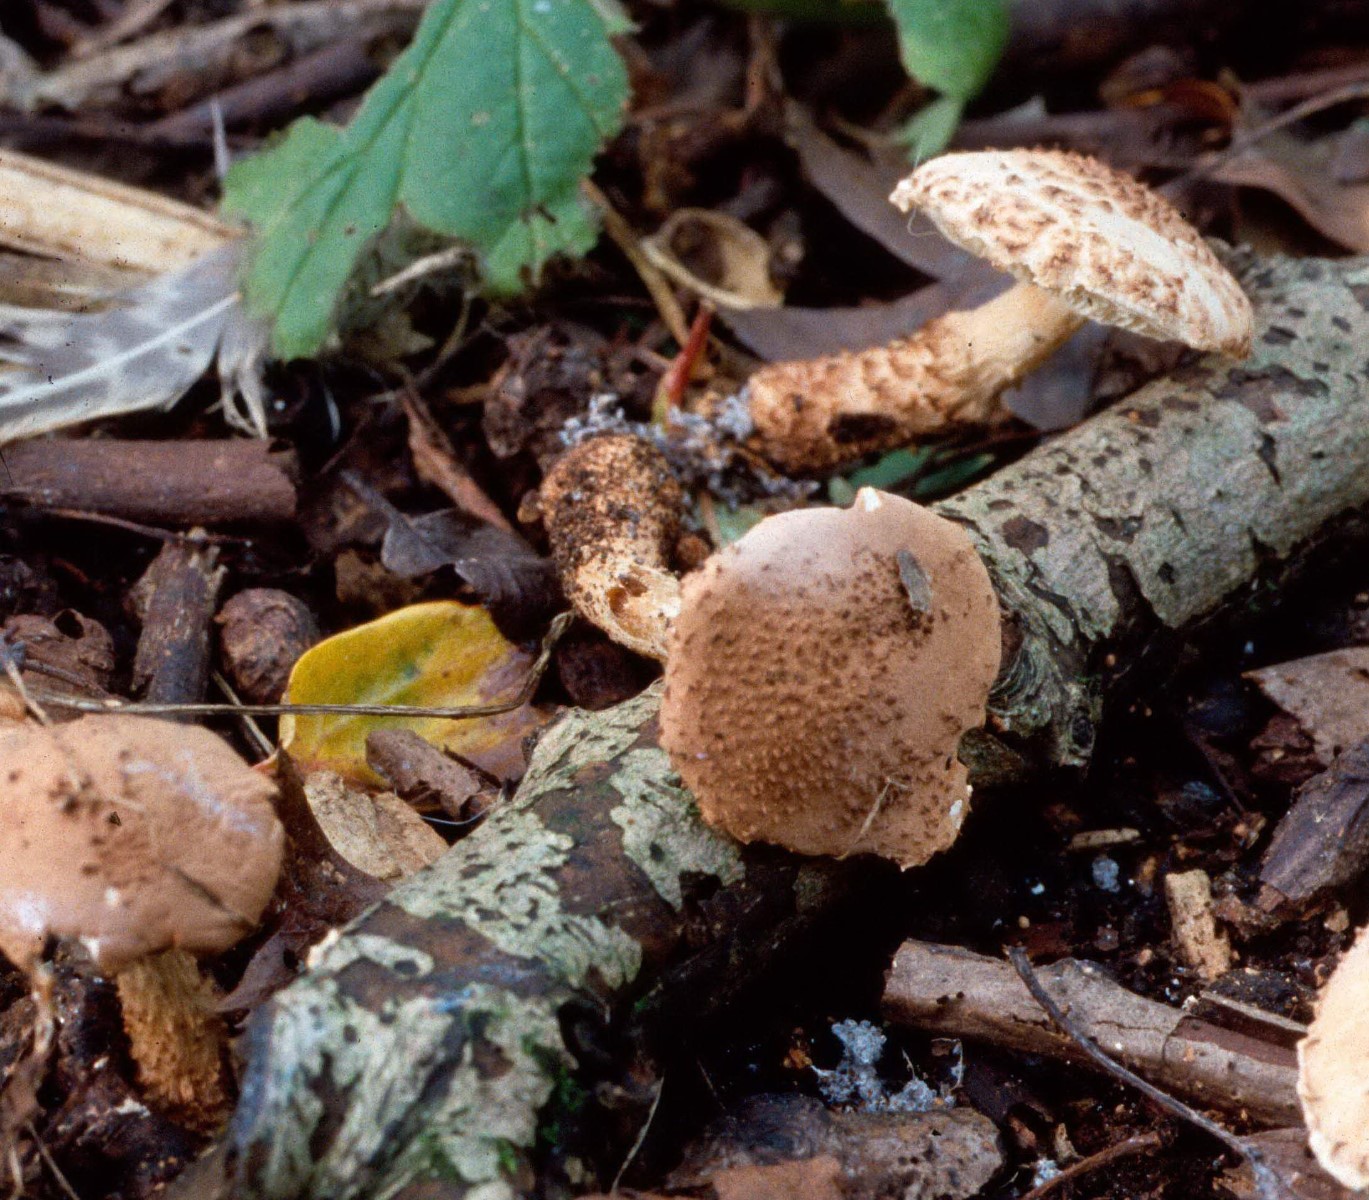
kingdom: Fungi
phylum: Basidiomycota
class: Agaricomycetes
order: Agaricales
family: Agaricaceae
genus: Echinoderma
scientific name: Echinoderma echinaceum
